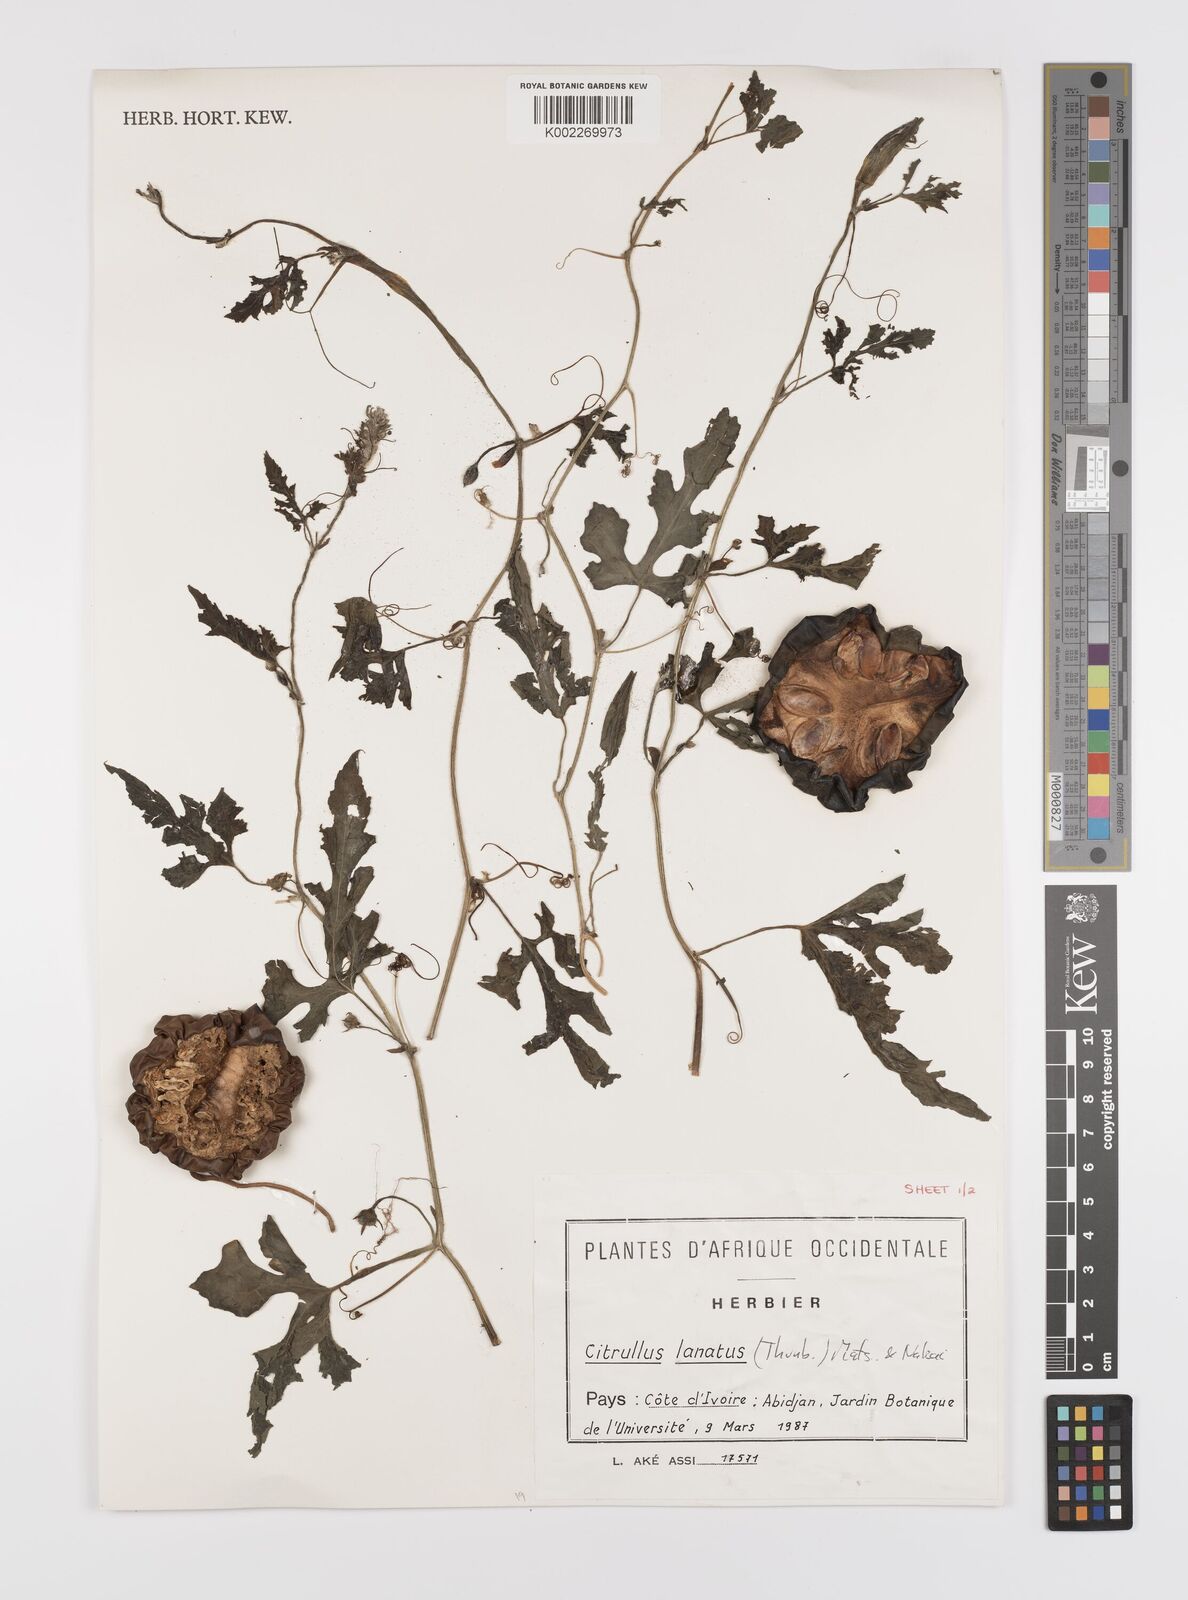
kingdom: Plantae
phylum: Tracheophyta
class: Magnoliopsida
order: Cucurbitales
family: Cucurbitaceae
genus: Citrullus
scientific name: Citrullus lanatus
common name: Watermelon
